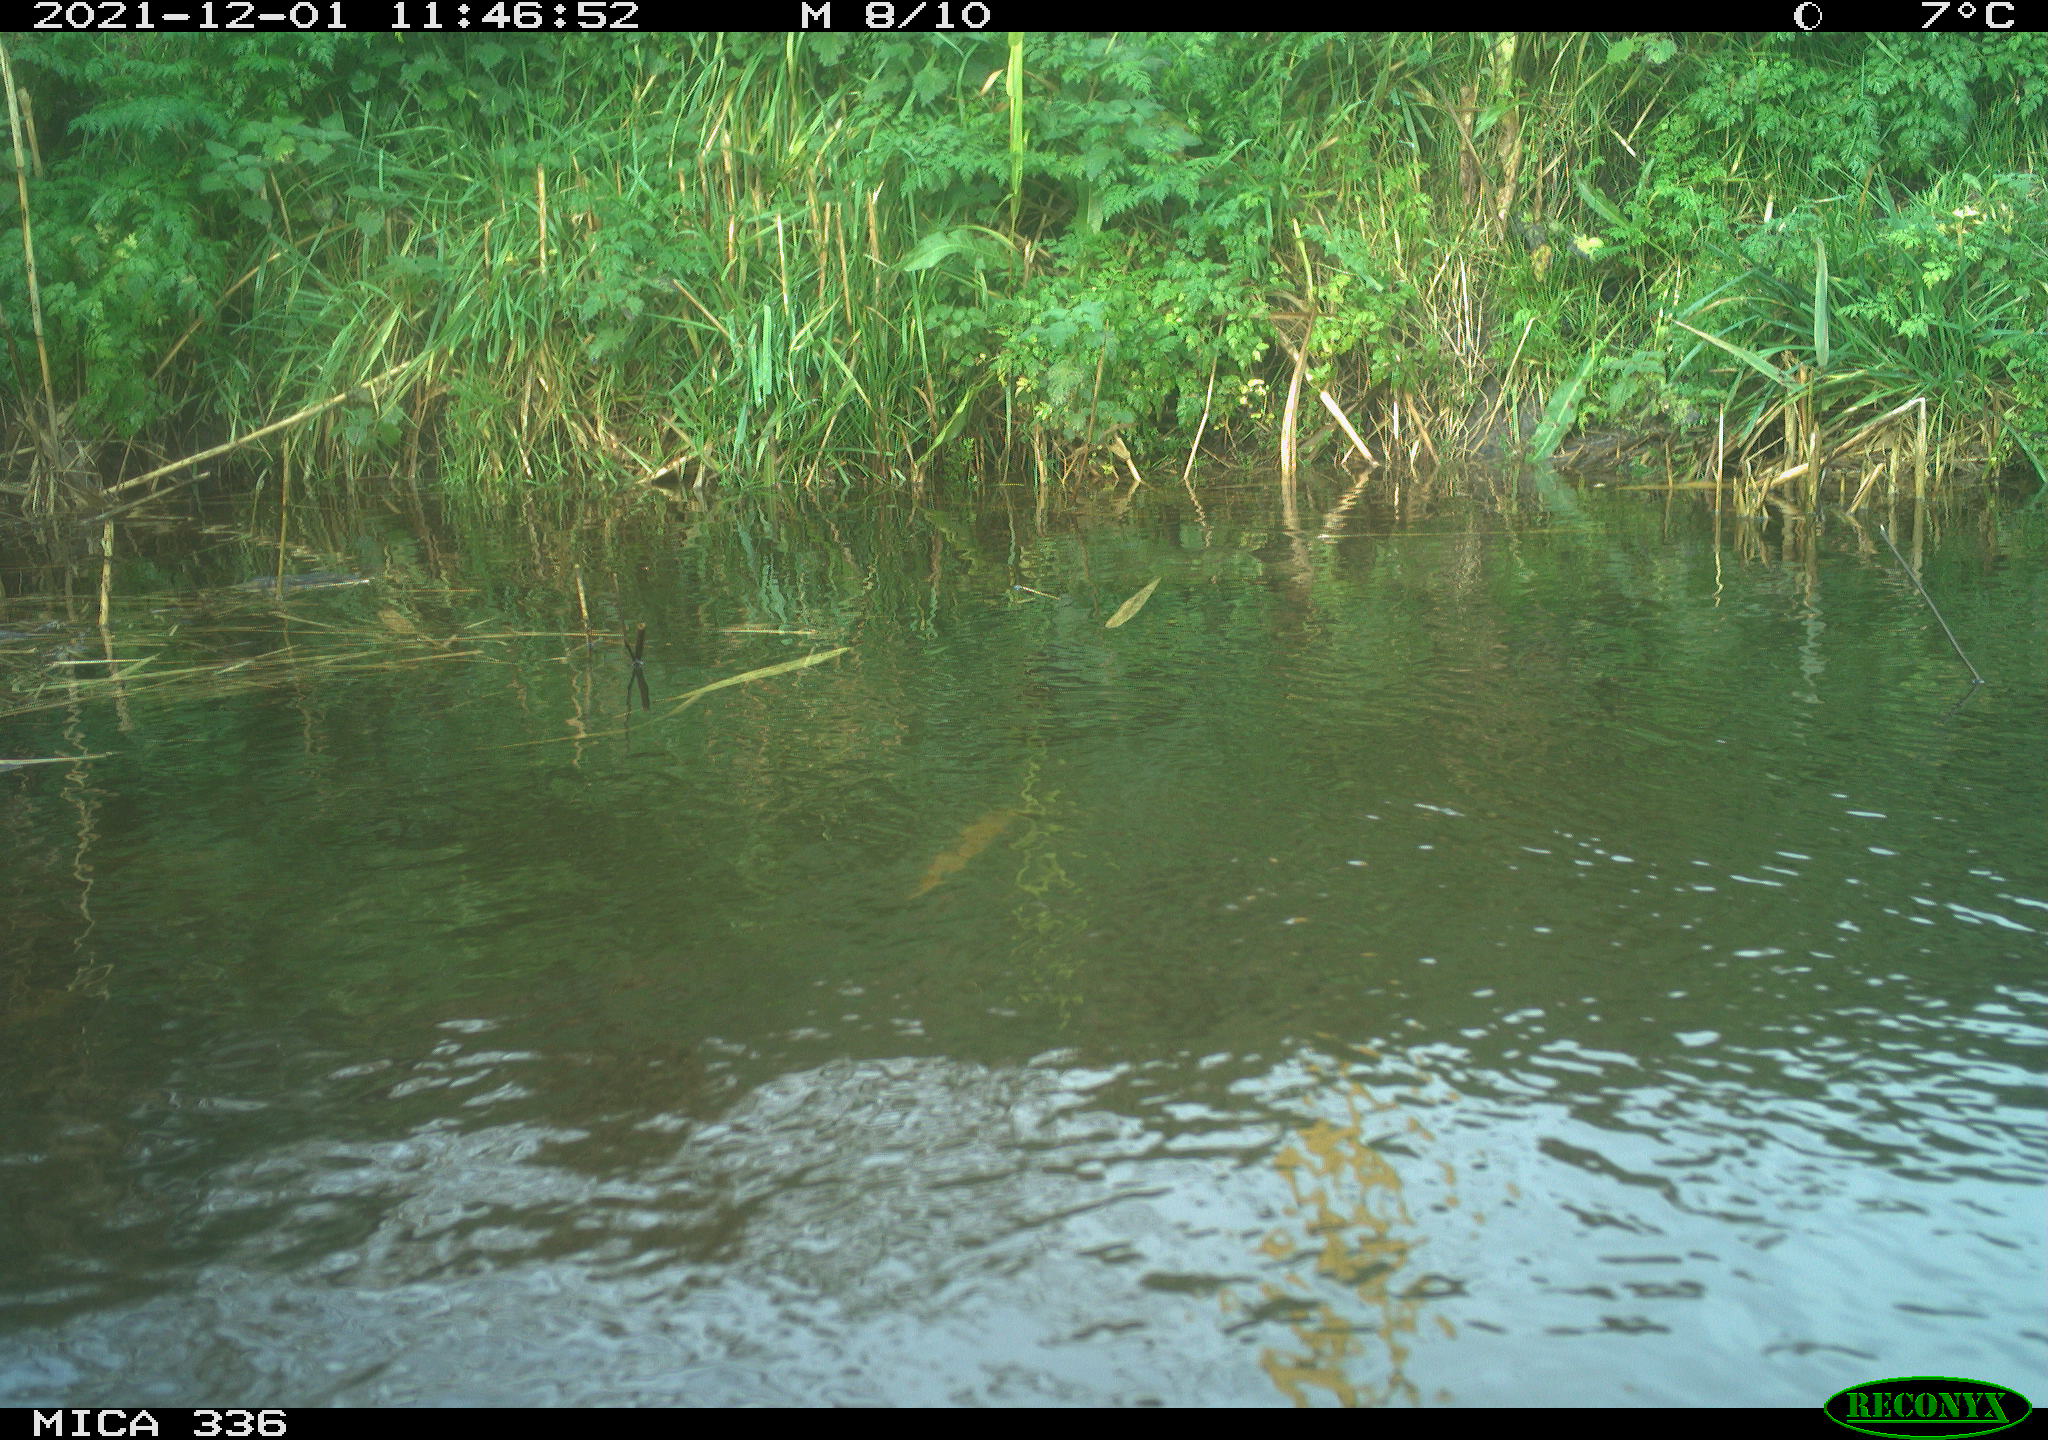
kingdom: Animalia
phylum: Chordata
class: Aves
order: Gruiformes
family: Rallidae
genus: Gallinula
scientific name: Gallinula chloropus
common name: Common moorhen
